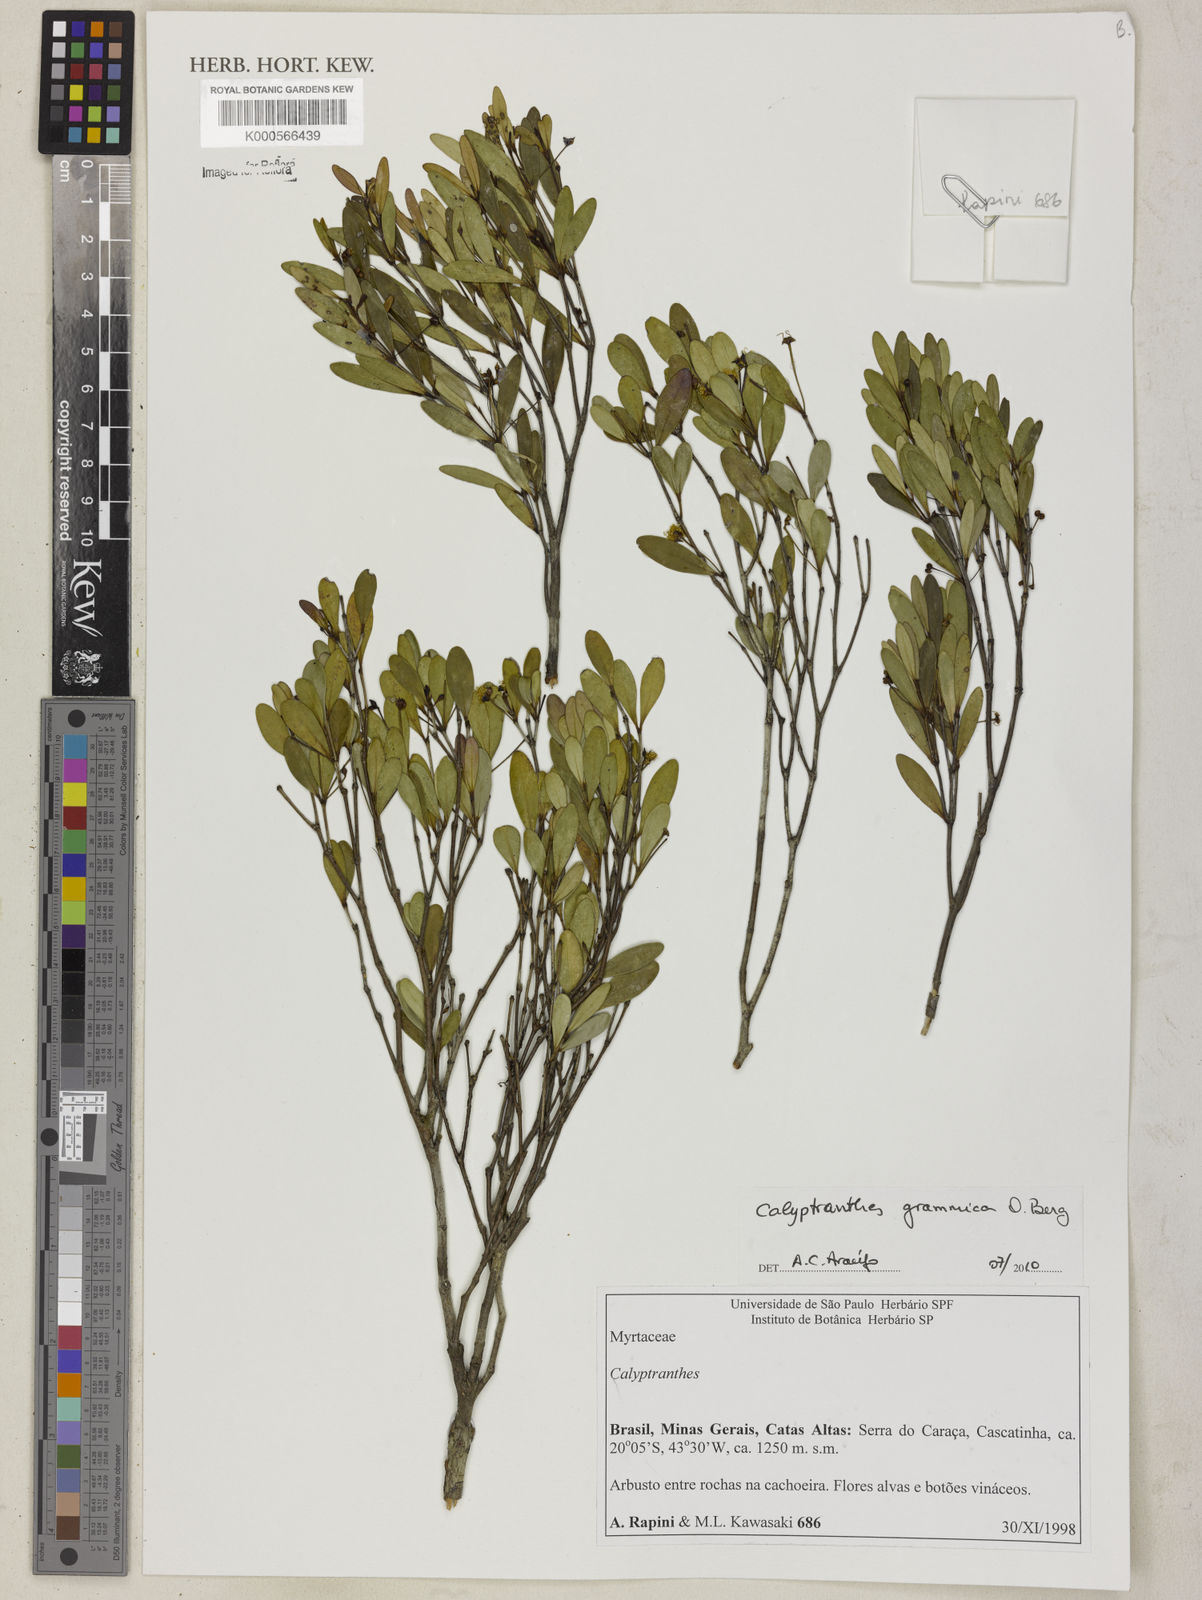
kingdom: Plantae
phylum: Tracheophyta
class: Magnoliopsida
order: Myrtales
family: Myrtaceae
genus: Myrcia
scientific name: Myrcia grammica
